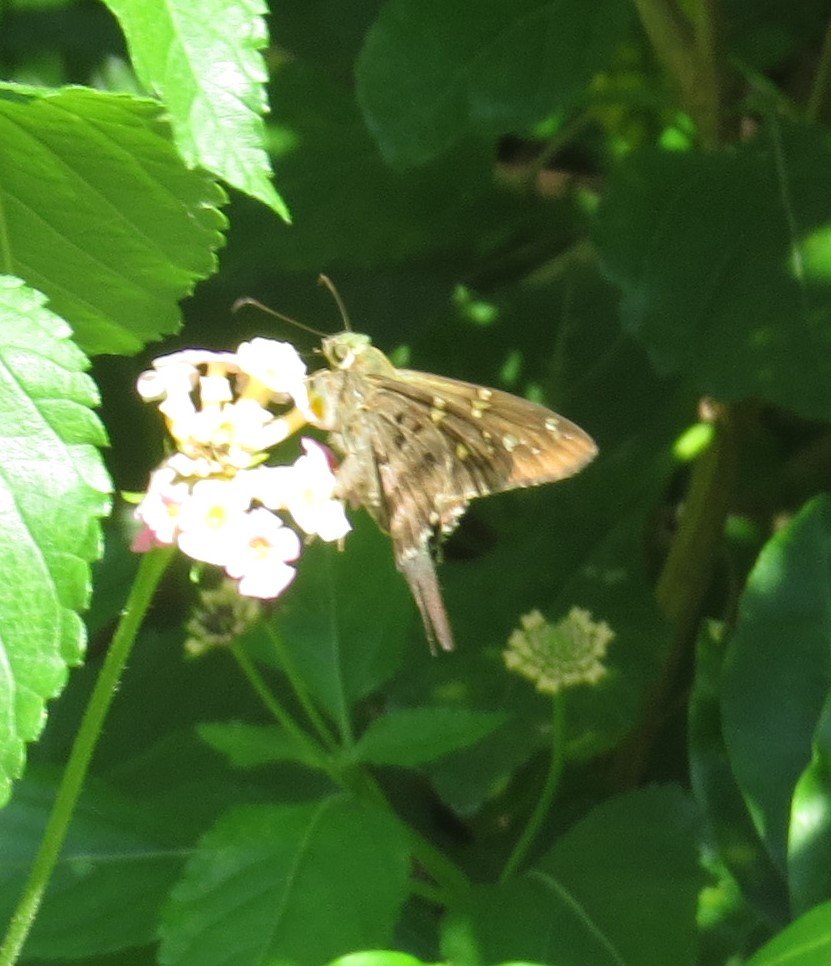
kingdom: Animalia
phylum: Arthropoda
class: Insecta
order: Lepidoptera
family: Hesperiidae
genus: Urbanus
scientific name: Urbanus proteus
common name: Long-tailed Skipper
